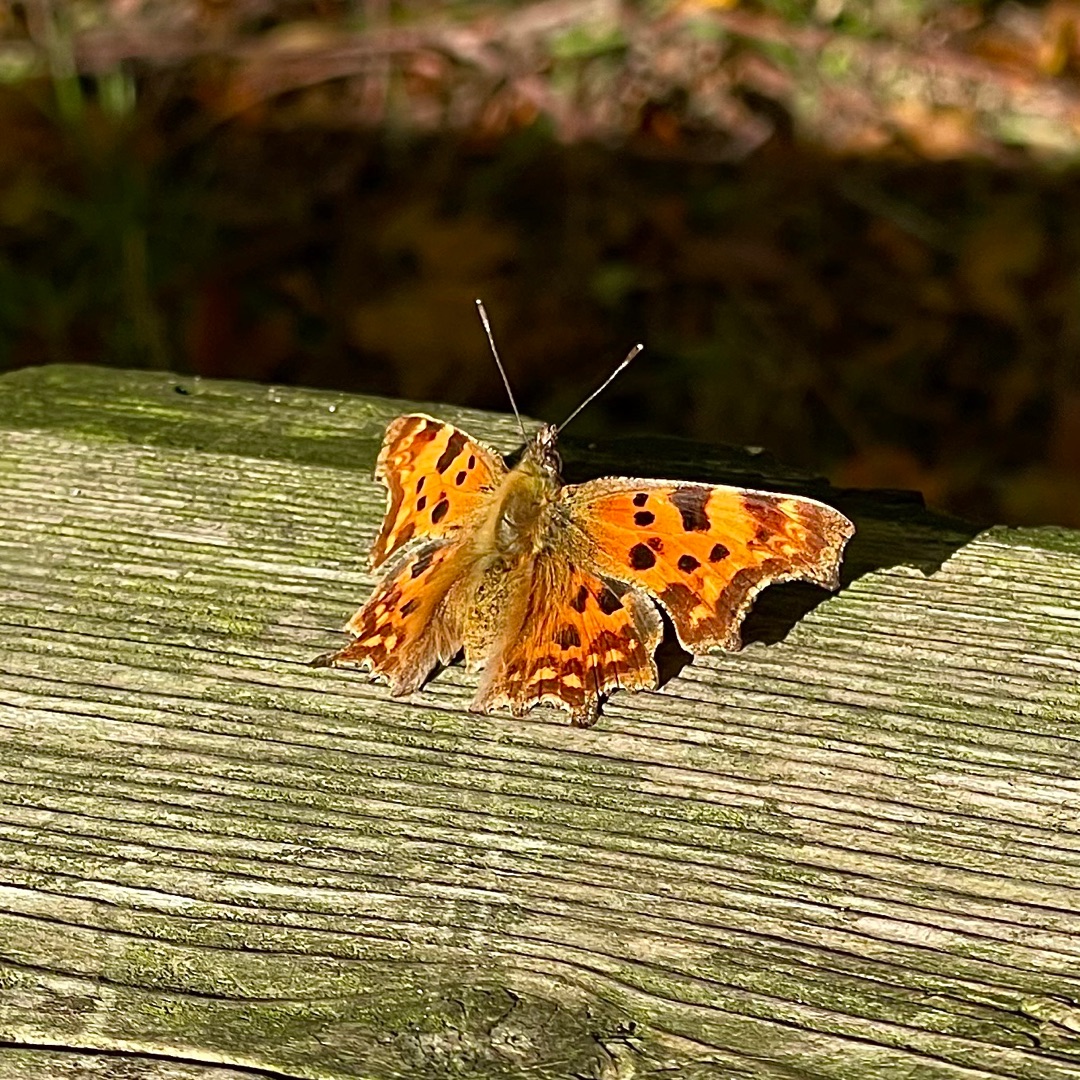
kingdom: Animalia
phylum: Arthropoda
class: Insecta
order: Lepidoptera
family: Nymphalidae
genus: Polygonia
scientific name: Polygonia c-album
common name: Det hvide C
